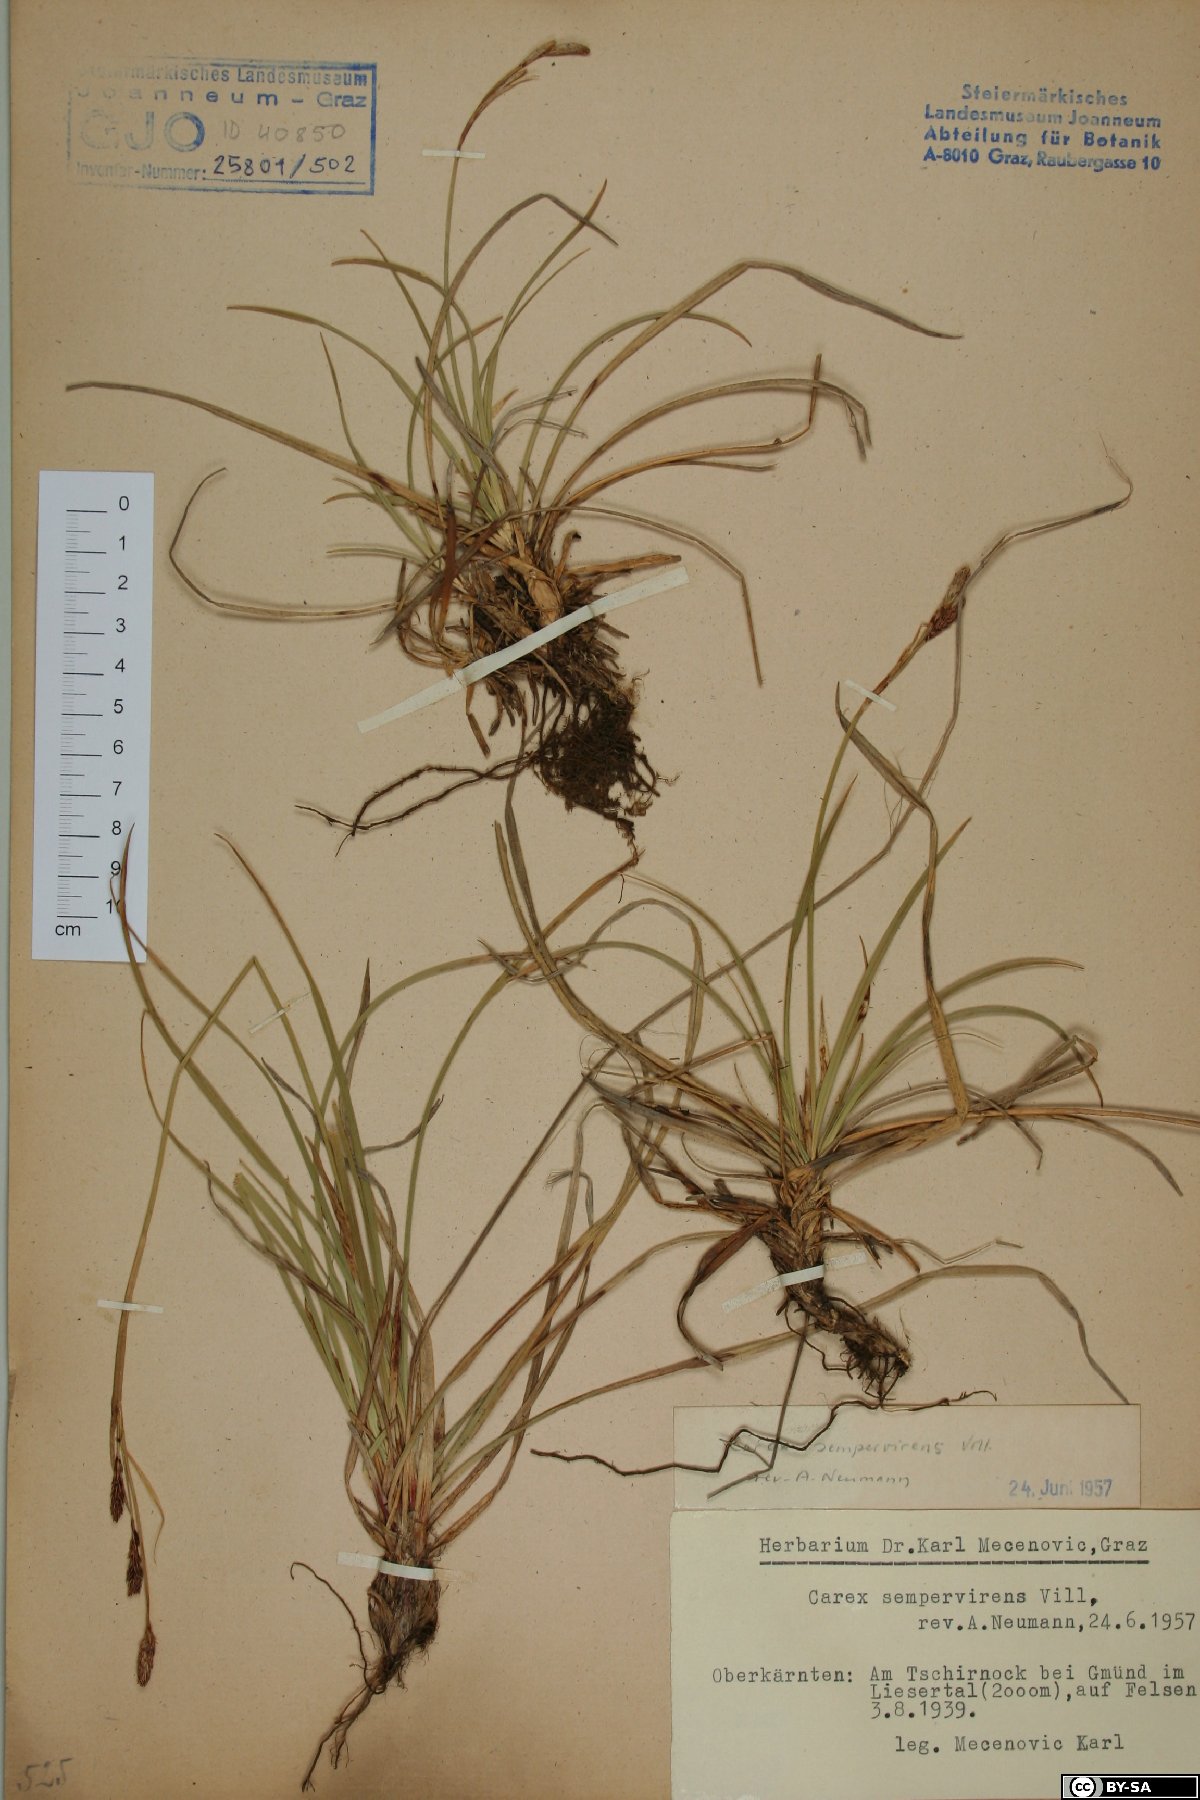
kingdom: Plantae
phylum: Tracheophyta
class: Liliopsida
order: Poales
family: Cyperaceae
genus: Carex
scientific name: Carex sempervirens
